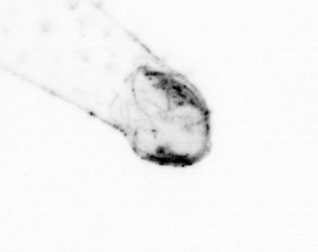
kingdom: Animalia
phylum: Chaetognatha
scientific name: Chaetognatha
